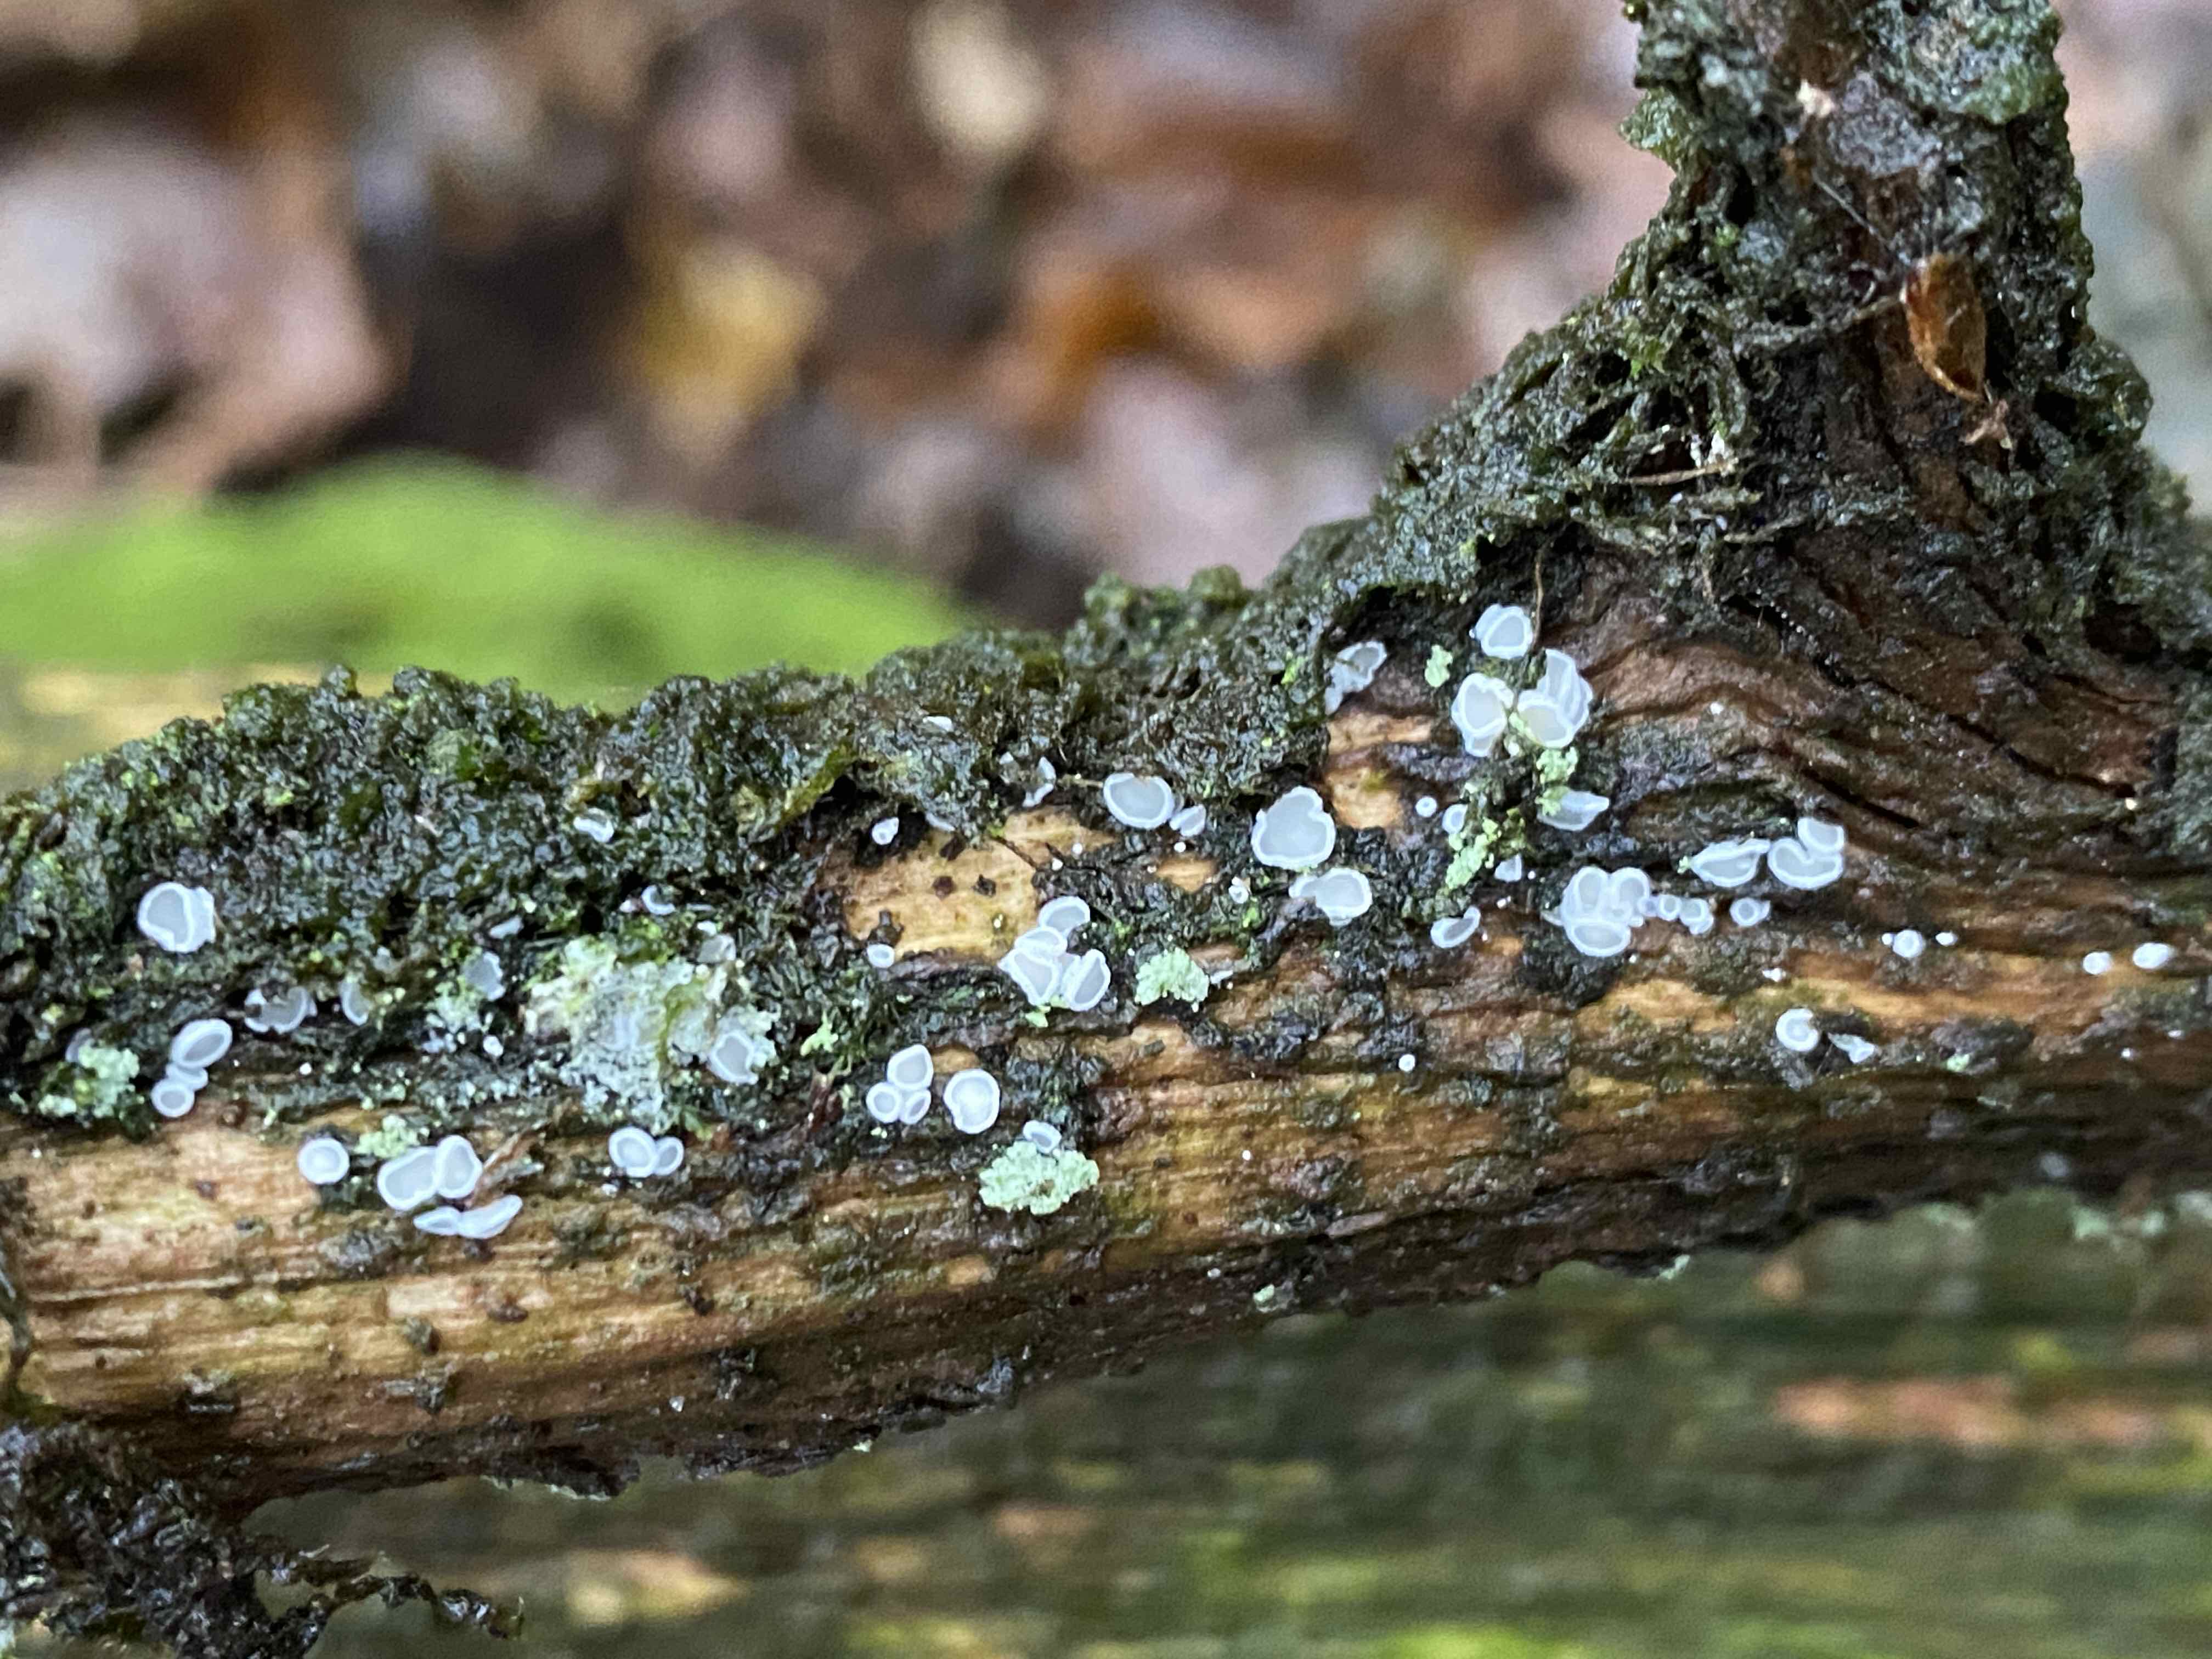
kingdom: Fungi
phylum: Ascomycota
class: Leotiomycetes
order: Helotiales
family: Lachnaceae
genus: Lachnum
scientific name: Lachnum
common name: frynseskive
